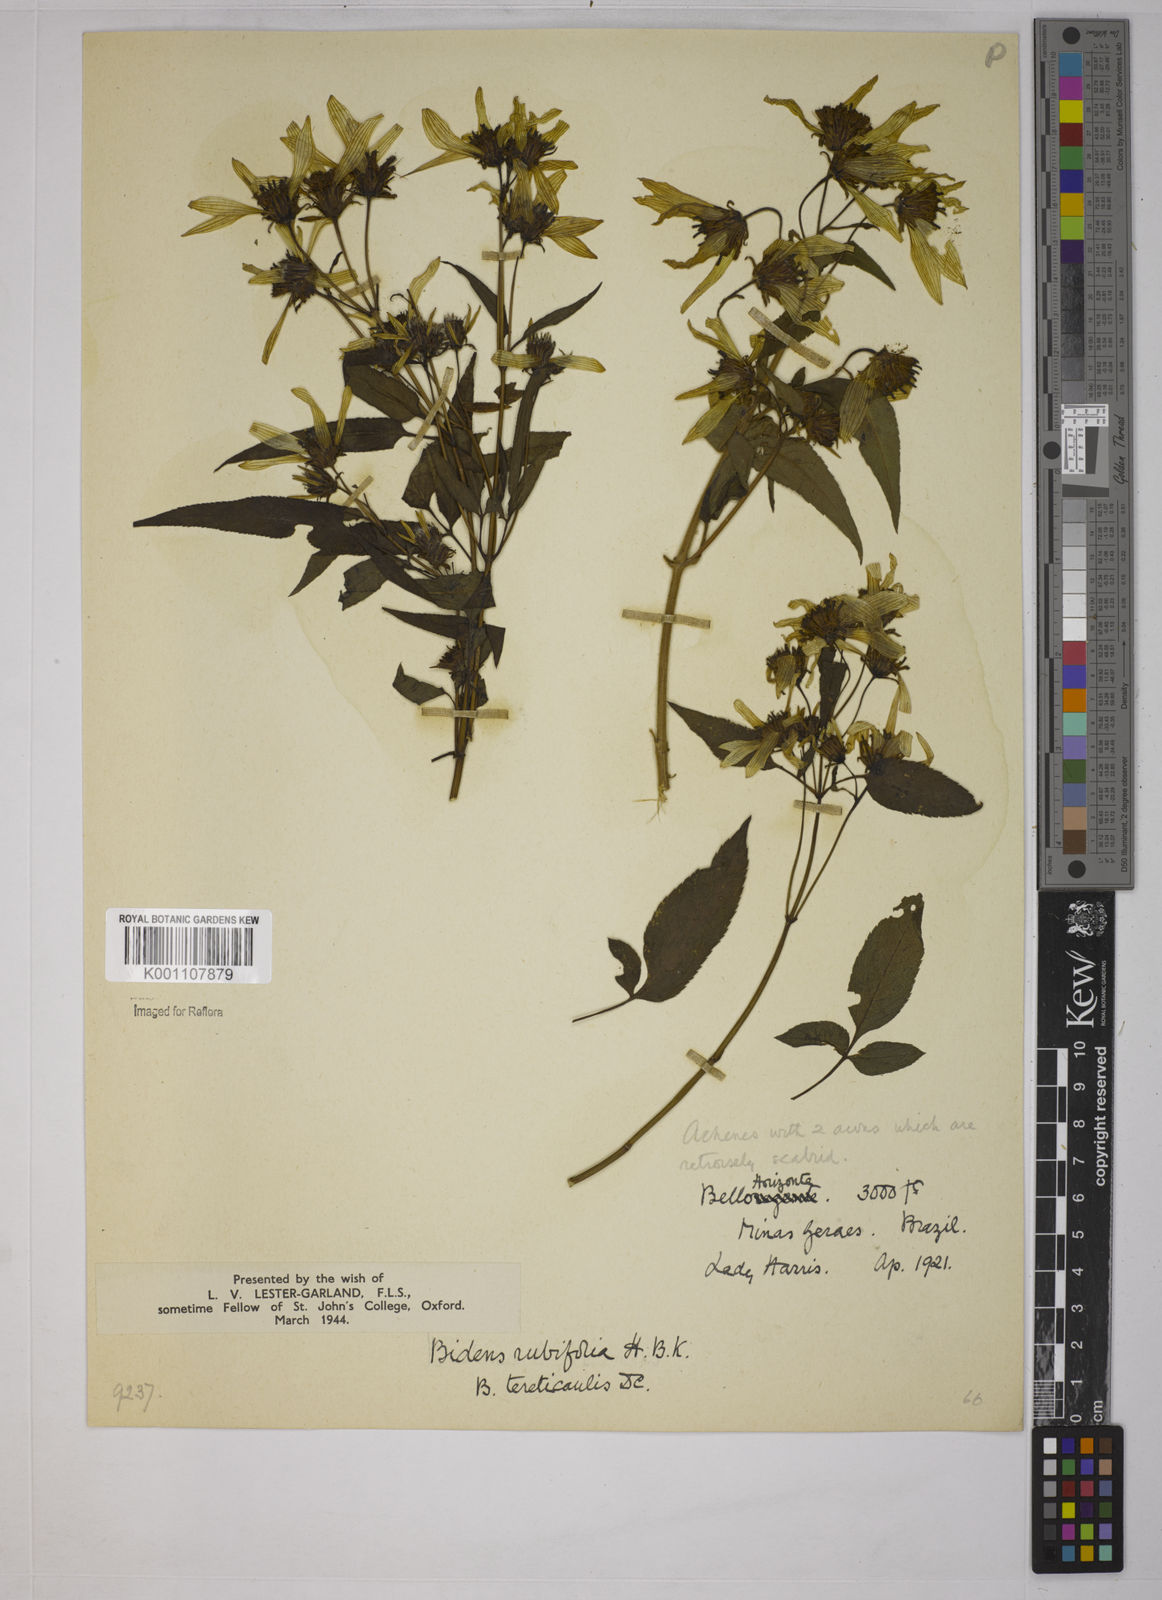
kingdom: Plantae
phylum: Tracheophyta
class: Magnoliopsida
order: Asterales
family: Asteraceae
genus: Bidens
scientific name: Bidens
